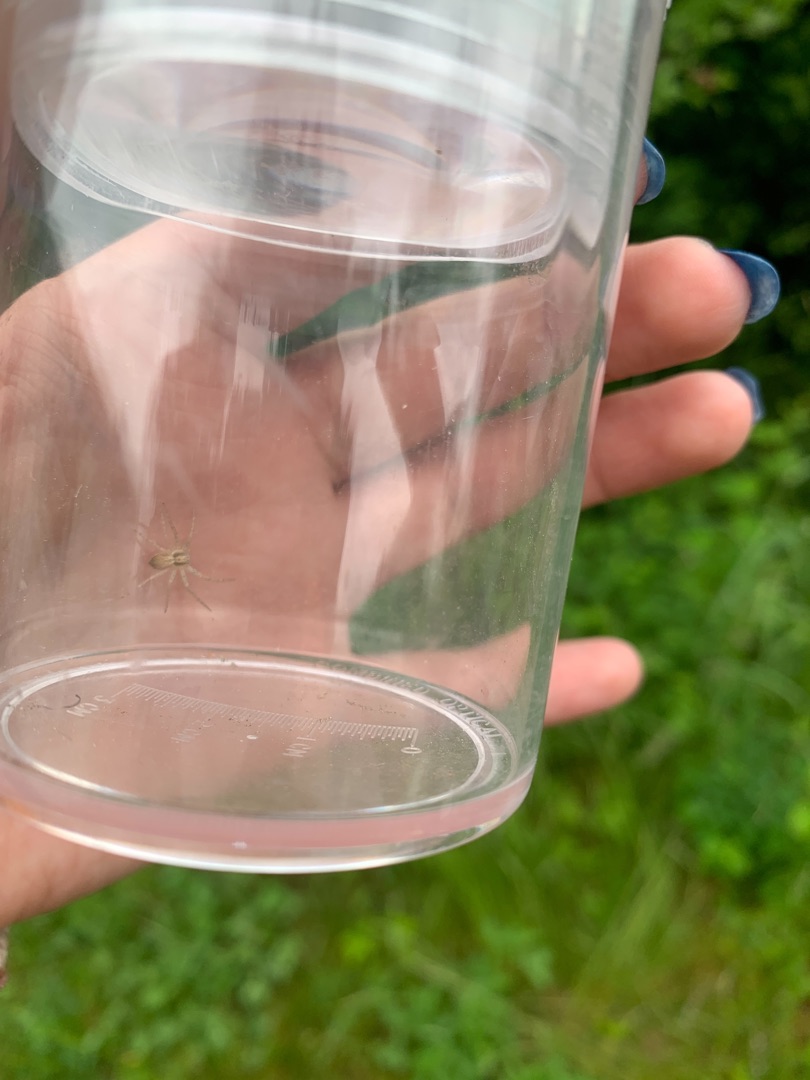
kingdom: Animalia
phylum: Arthropoda
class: Arachnida
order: Araneae
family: Philodromidae
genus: Philodromus
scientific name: Philodromus dispar
